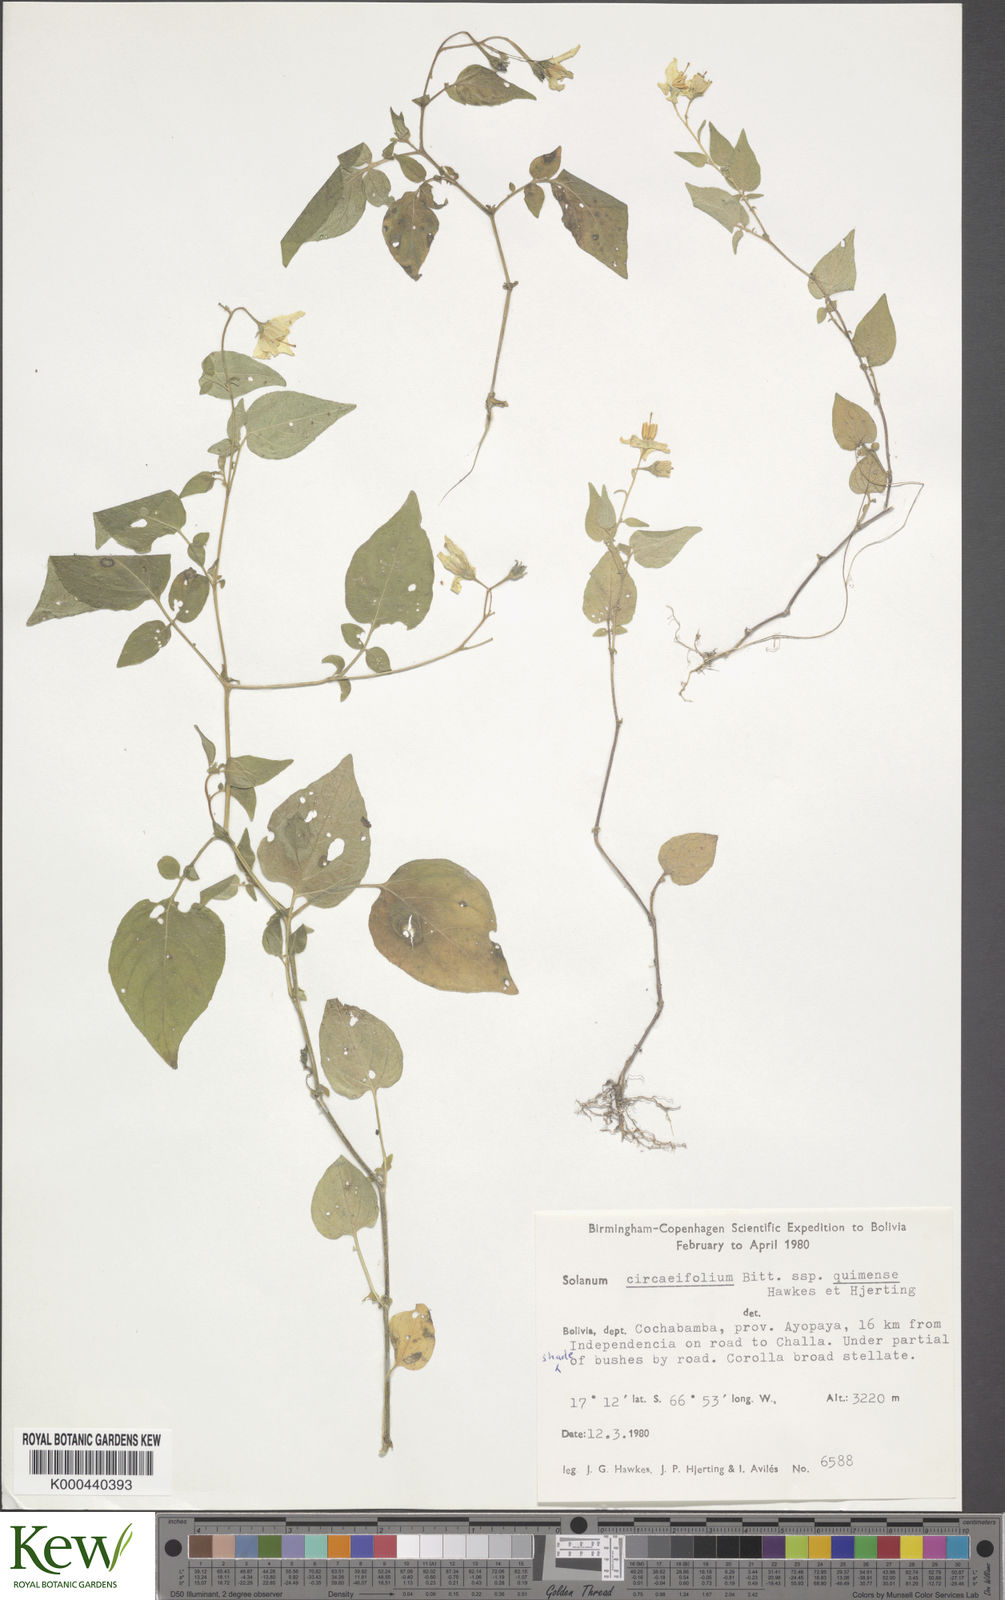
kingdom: Plantae
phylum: Tracheophyta
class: Magnoliopsida
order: Solanales
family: Solanaceae
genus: Solanum
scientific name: Solanum stipuloideum
